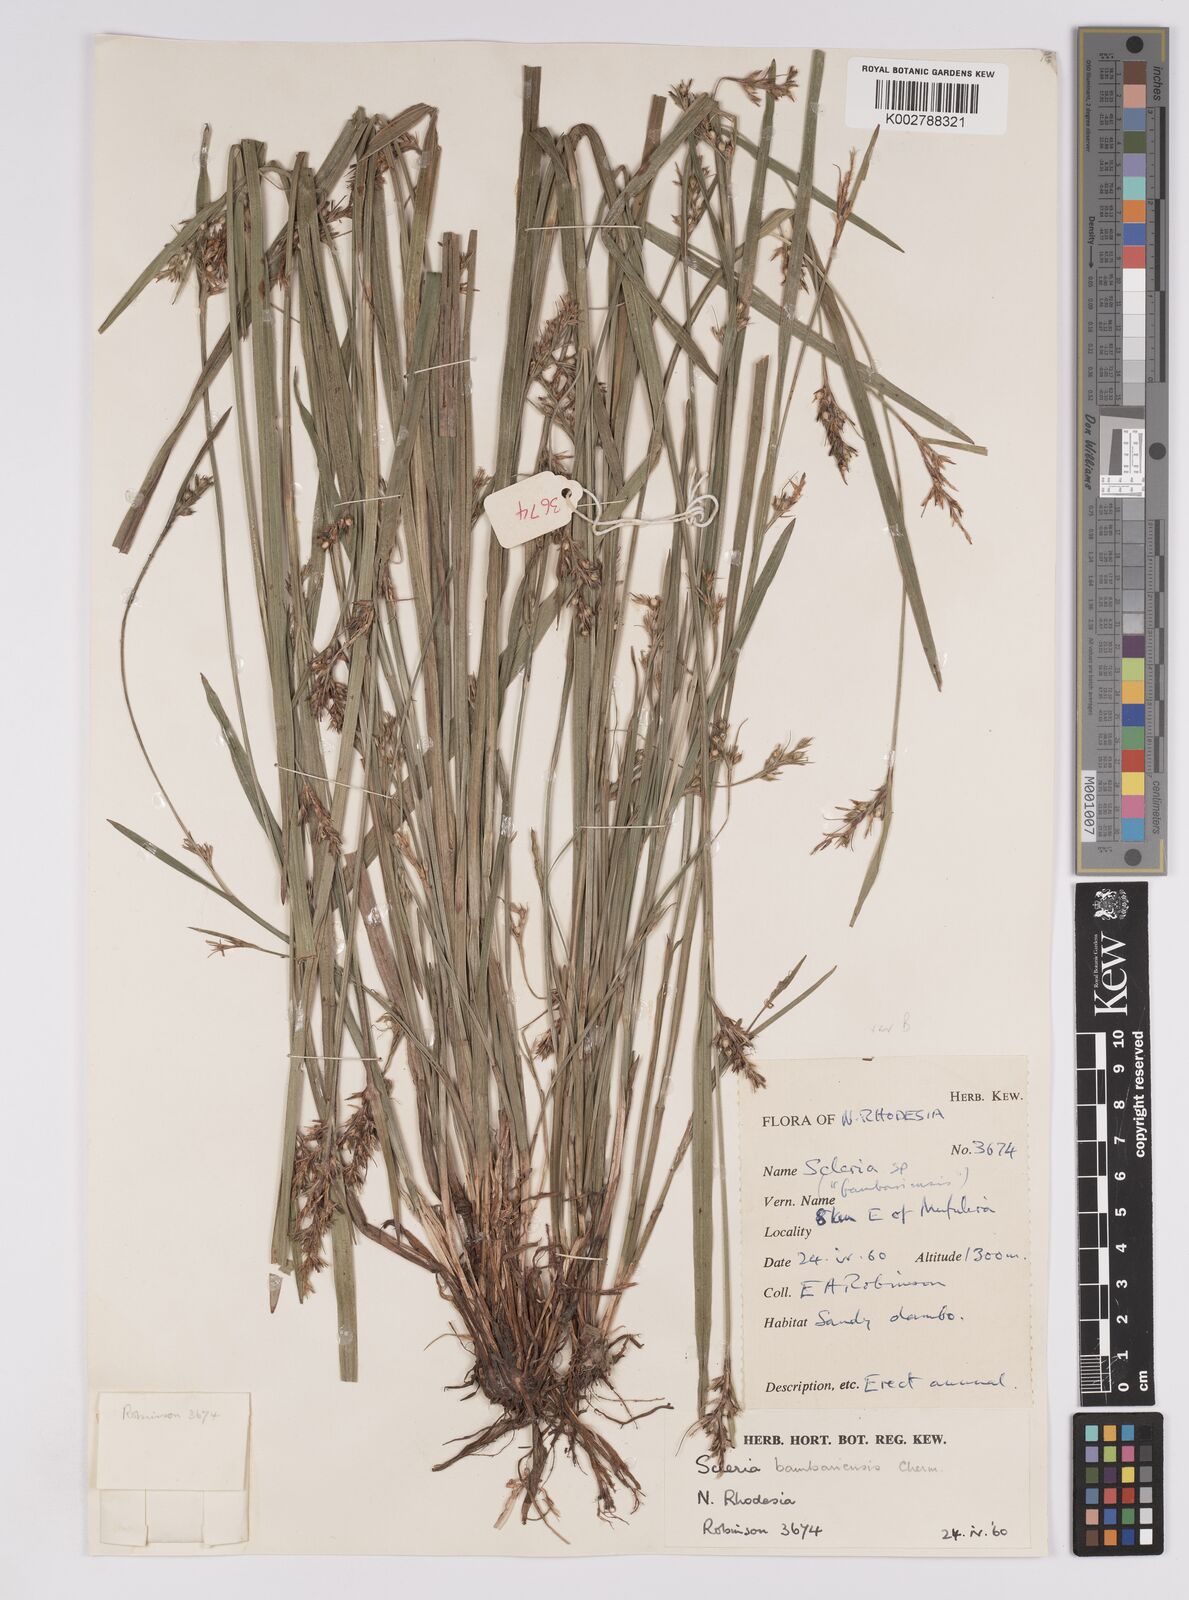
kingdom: Plantae
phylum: Tracheophyta
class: Liliopsida
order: Poales
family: Cyperaceae
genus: Scleria
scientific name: Scleria bambariensis
